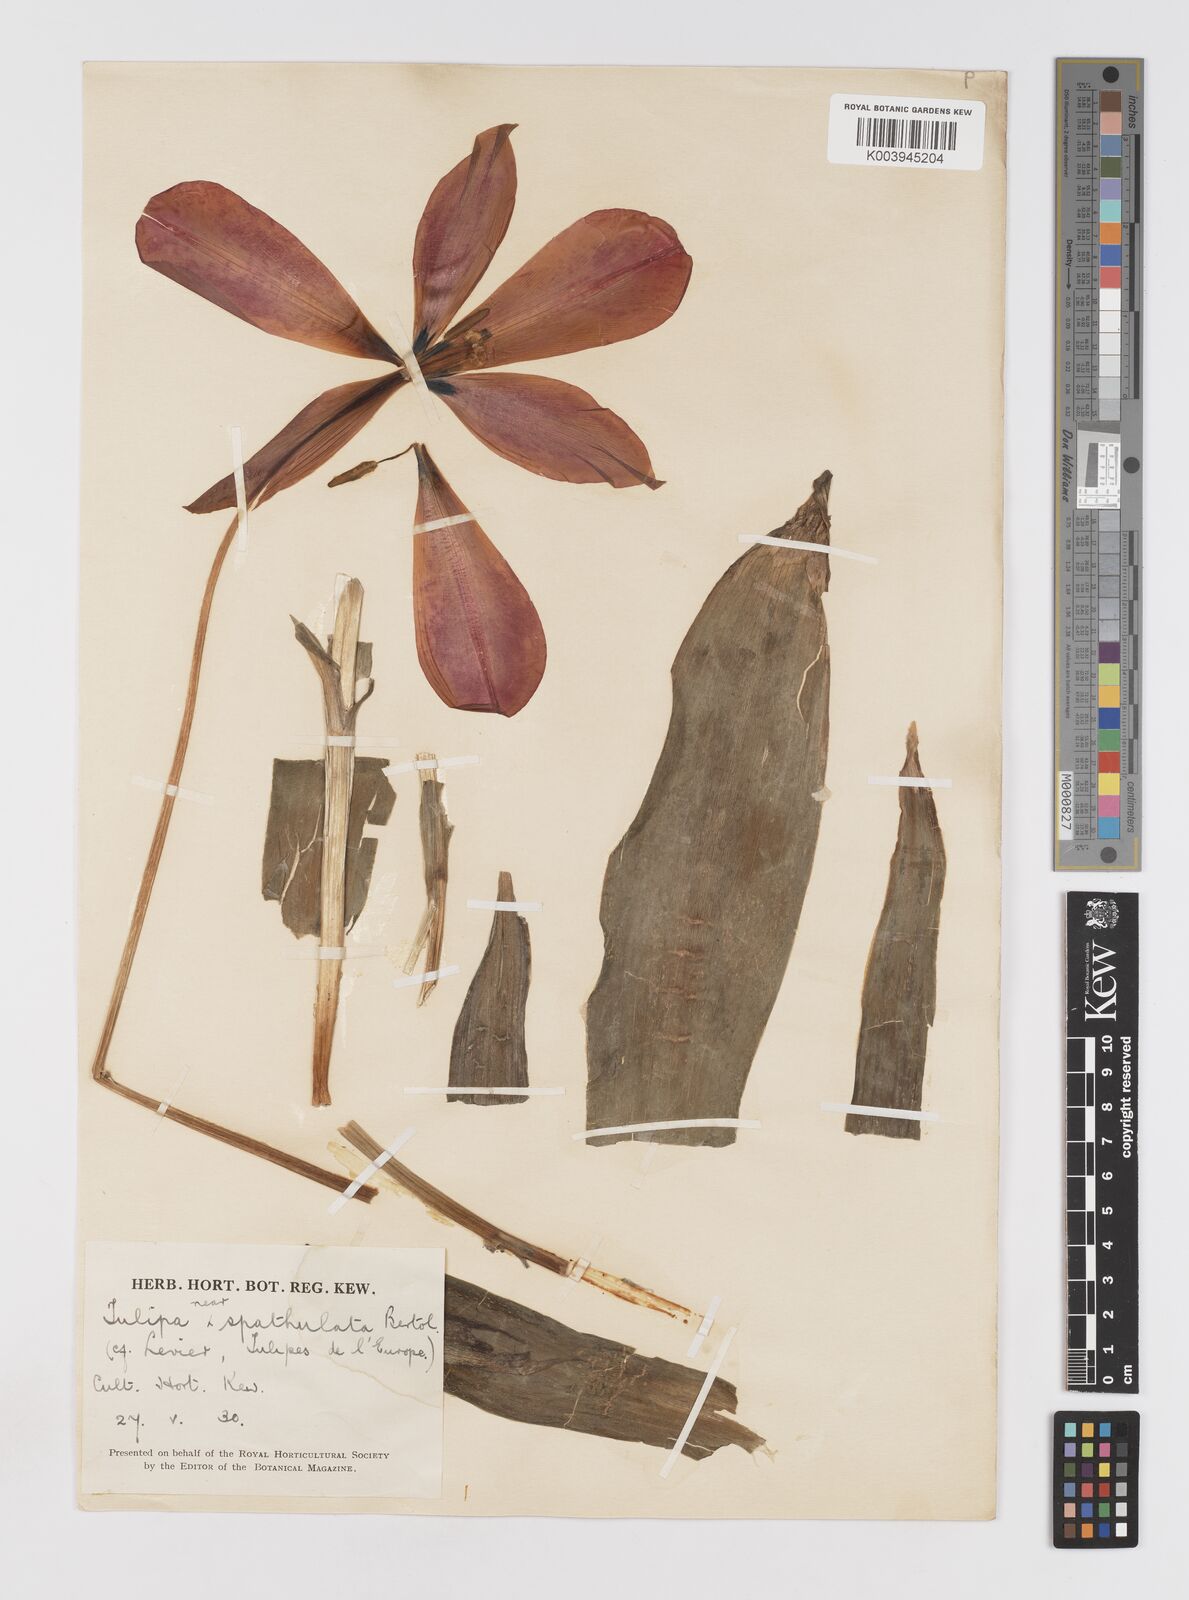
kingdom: Plantae
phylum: Tracheophyta
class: Liliopsida
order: Liliales
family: Liliaceae
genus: Tulipa
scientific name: Tulipa gesneriana
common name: Garden tulip
